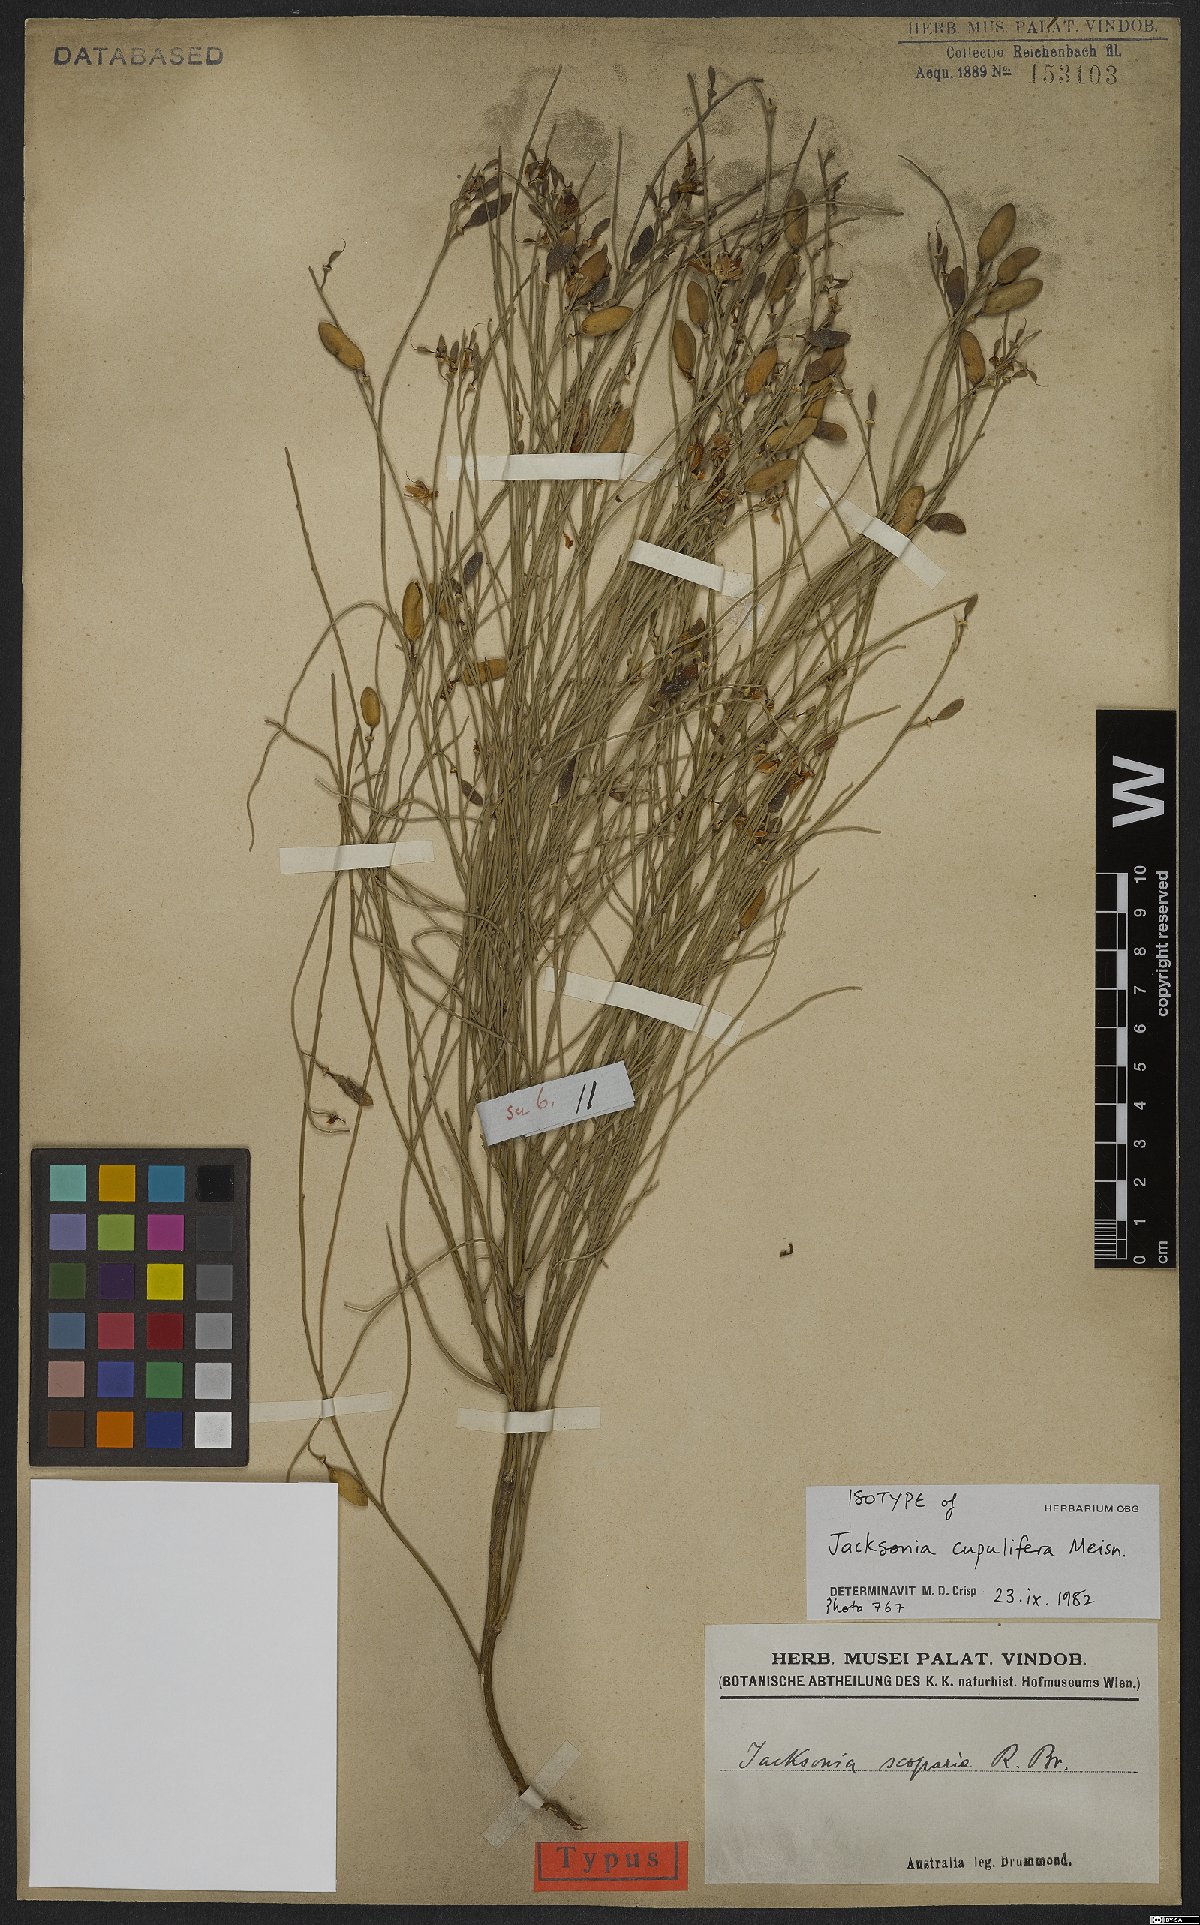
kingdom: Plantae
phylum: Tracheophyta
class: Magnoliopsida
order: Fabales
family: Fabaceae
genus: Jacksonia
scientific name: Jacksonia cupulifera
